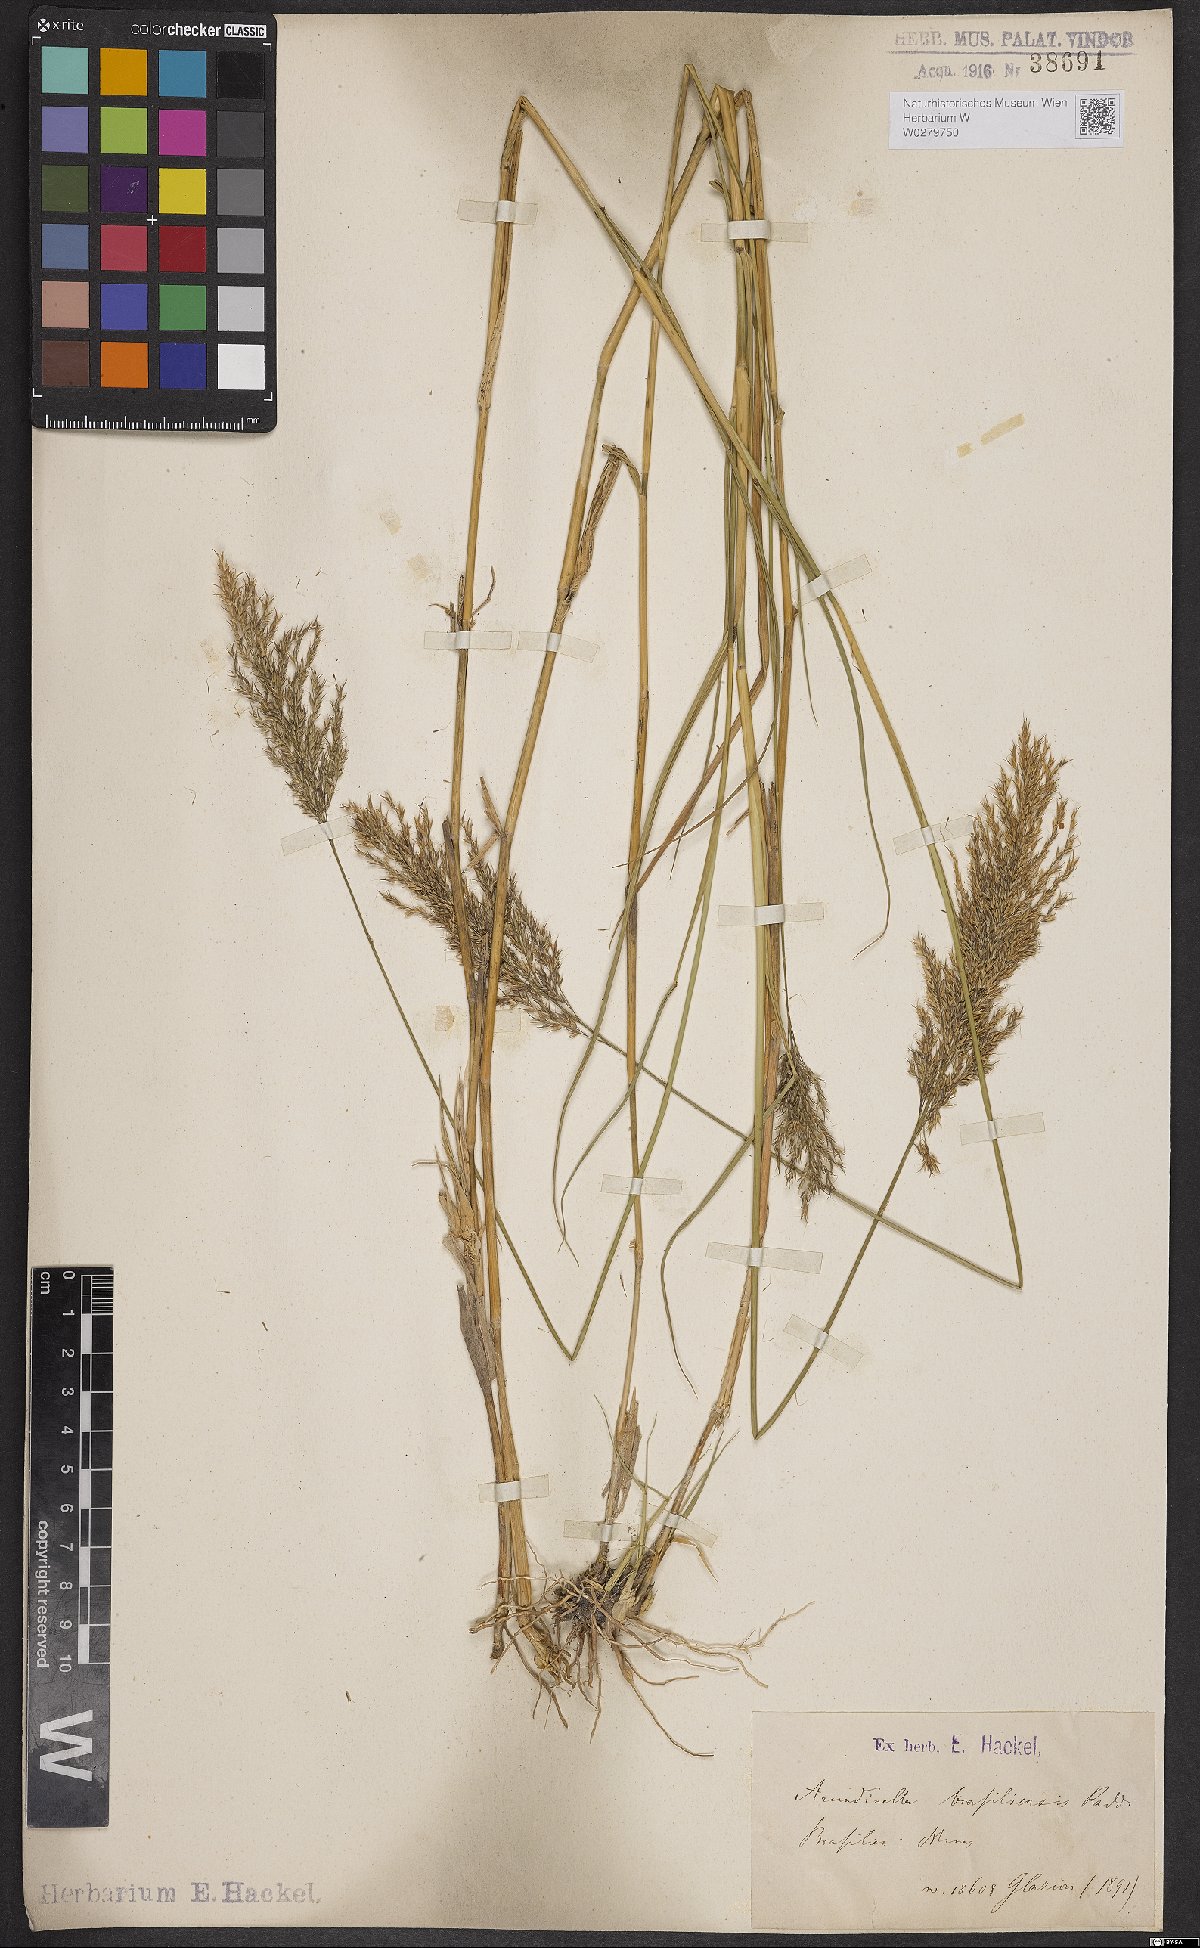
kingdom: Plantae
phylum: Tracheophyta
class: Liliopsida
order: Poales
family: Poaceae
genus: Arundinella
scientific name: Arundinella hispida
